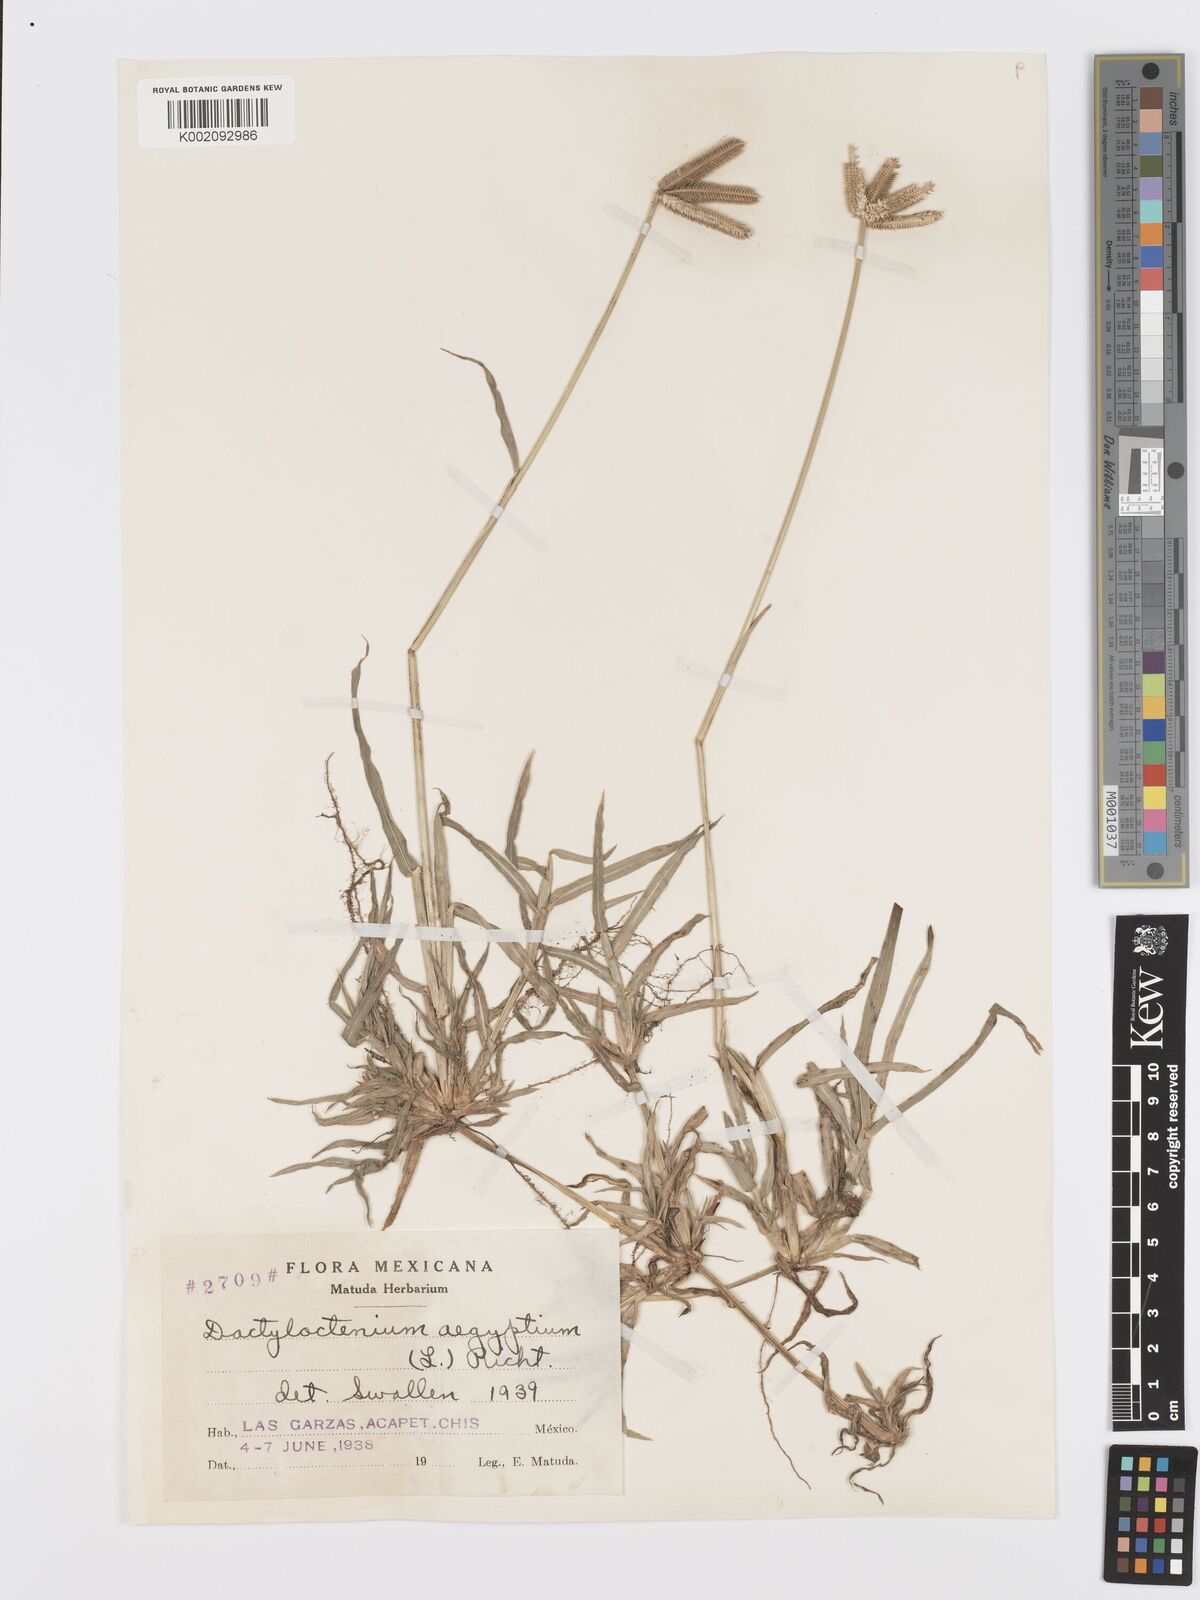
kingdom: Plantae
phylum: Tracheophyta
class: Liliopsida
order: Poales
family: Poaceae
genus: Dactyloctenium
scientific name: Dactyloctenium aegyptium
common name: Egyptian grass
